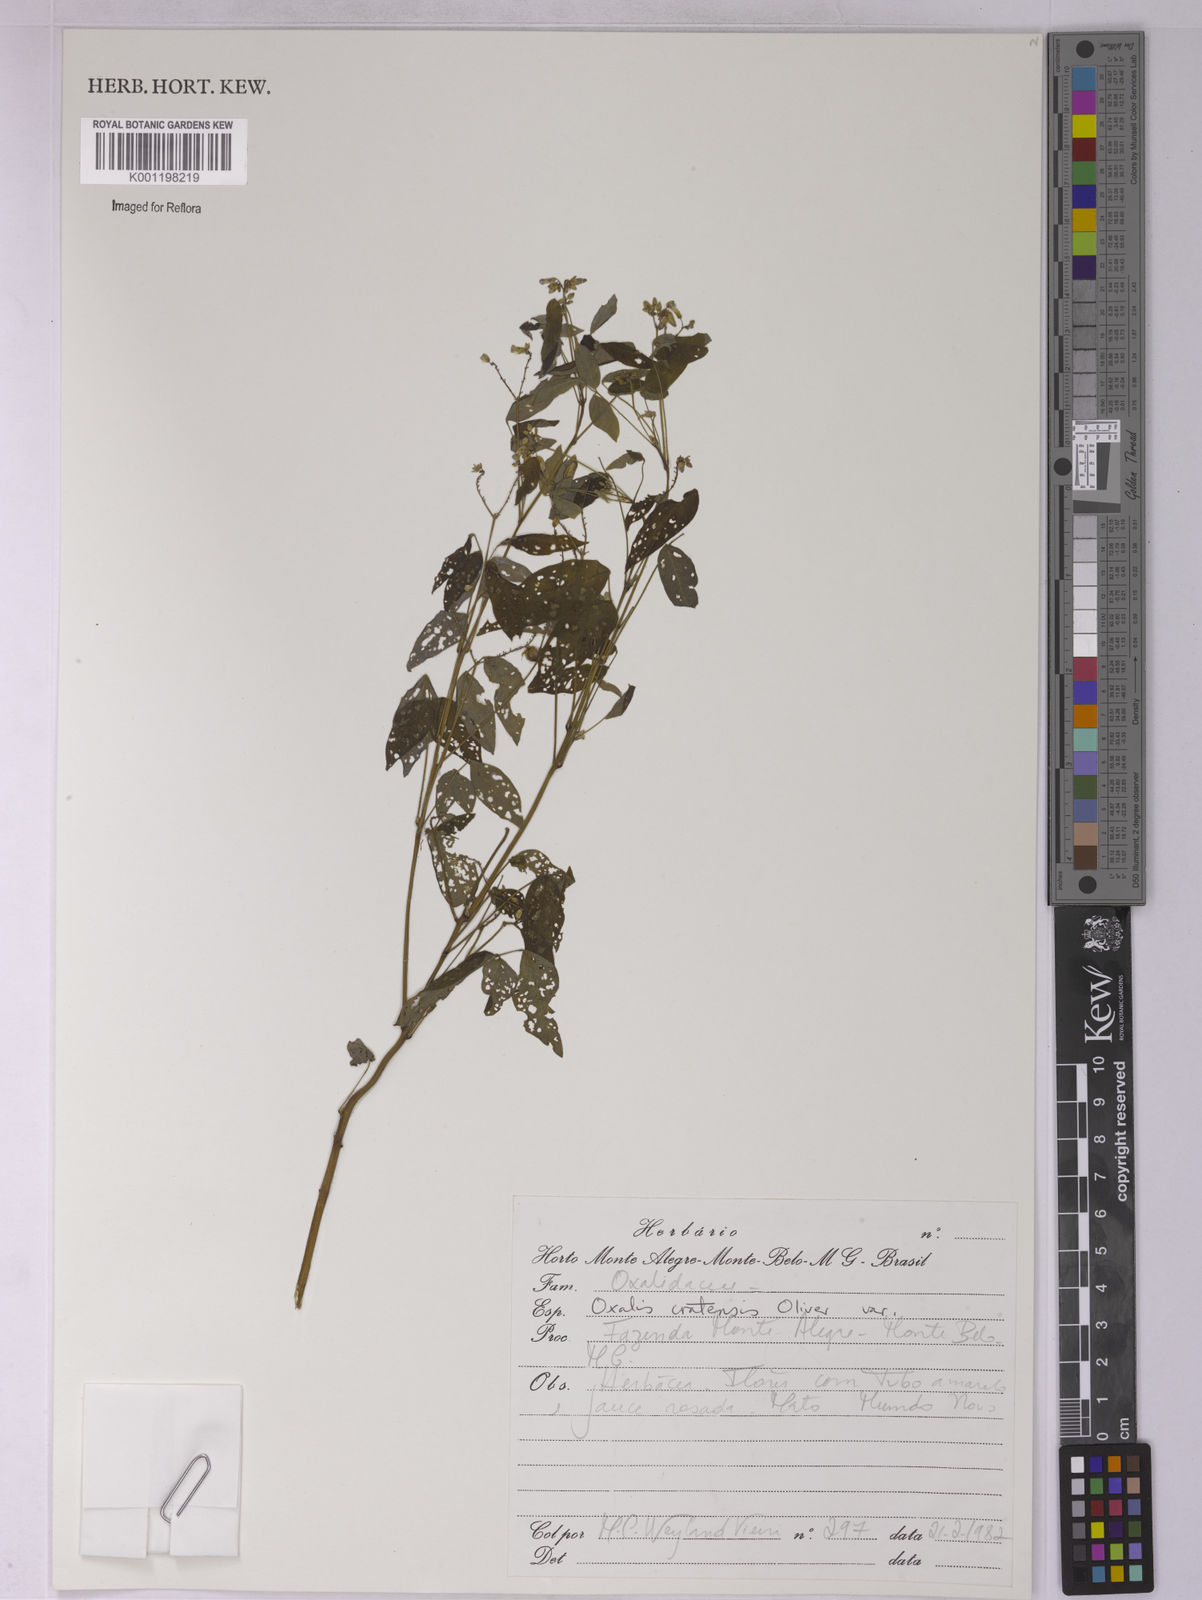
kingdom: Plantae
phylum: Tracheophyta
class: Magnoliopsida
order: Oxalidales
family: Oxalidaceae
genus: Oxalis
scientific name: Oxalis cratensis
